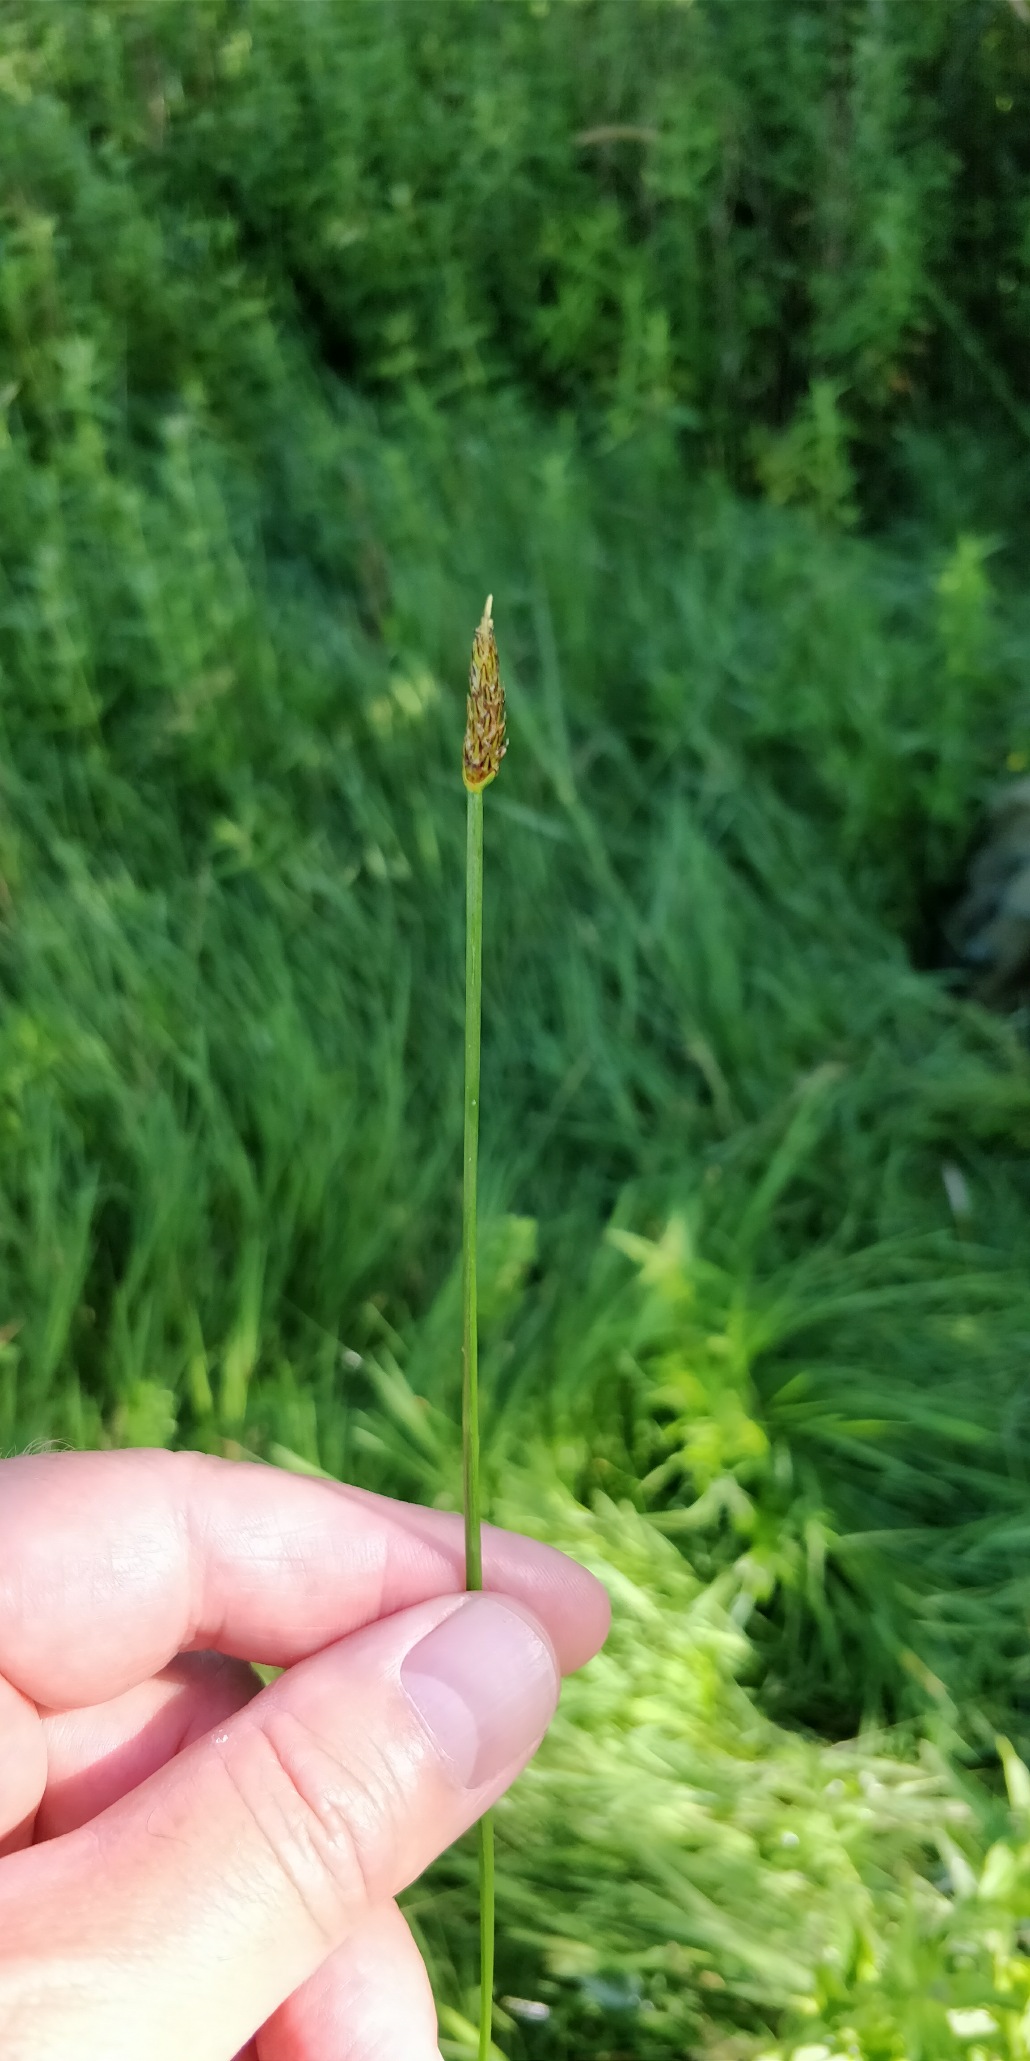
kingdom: Plantae
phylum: Tracheophyta
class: Liliopsida
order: Poales
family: Cyperaceae
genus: Eleocharis
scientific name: Eleocharis palustris
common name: Almindelig sumpstrå
